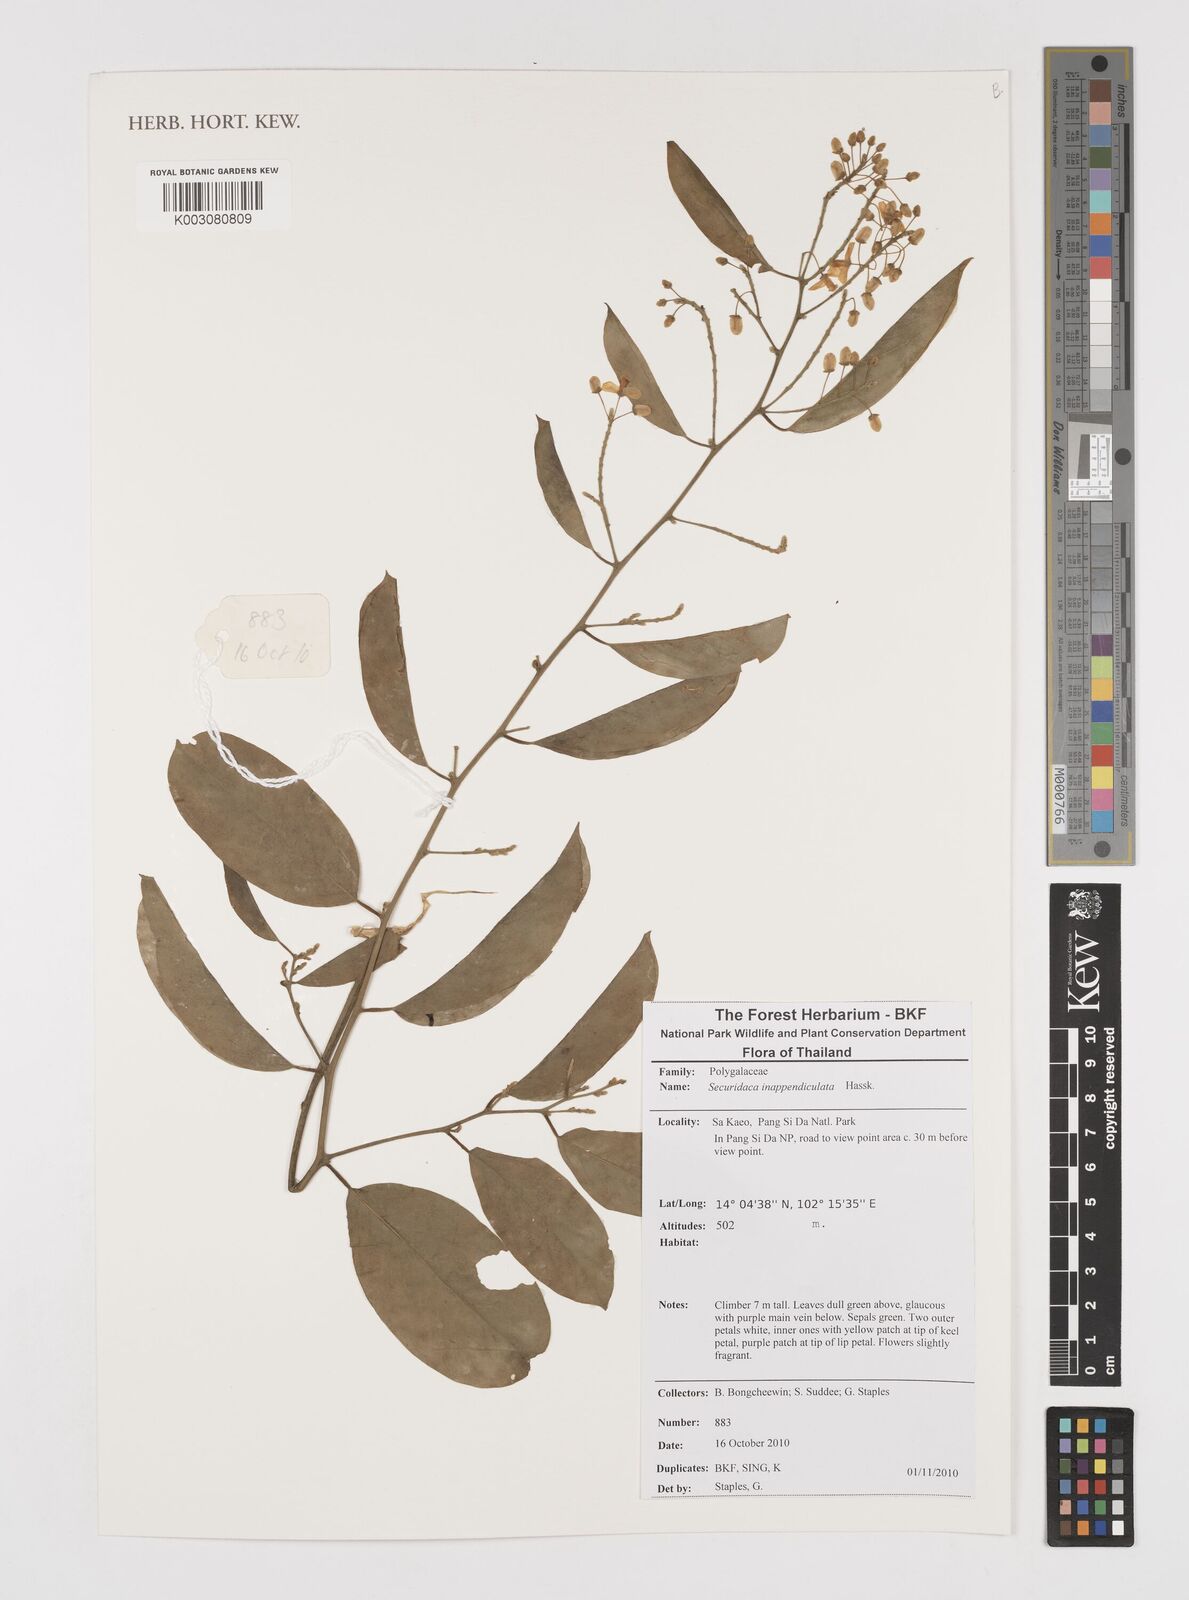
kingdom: Plantae
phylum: Tracheophyta
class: Magnoliopsida
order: Fabales
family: Polygalaceae
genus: Securidaca
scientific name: Securidaca inappendiculata
